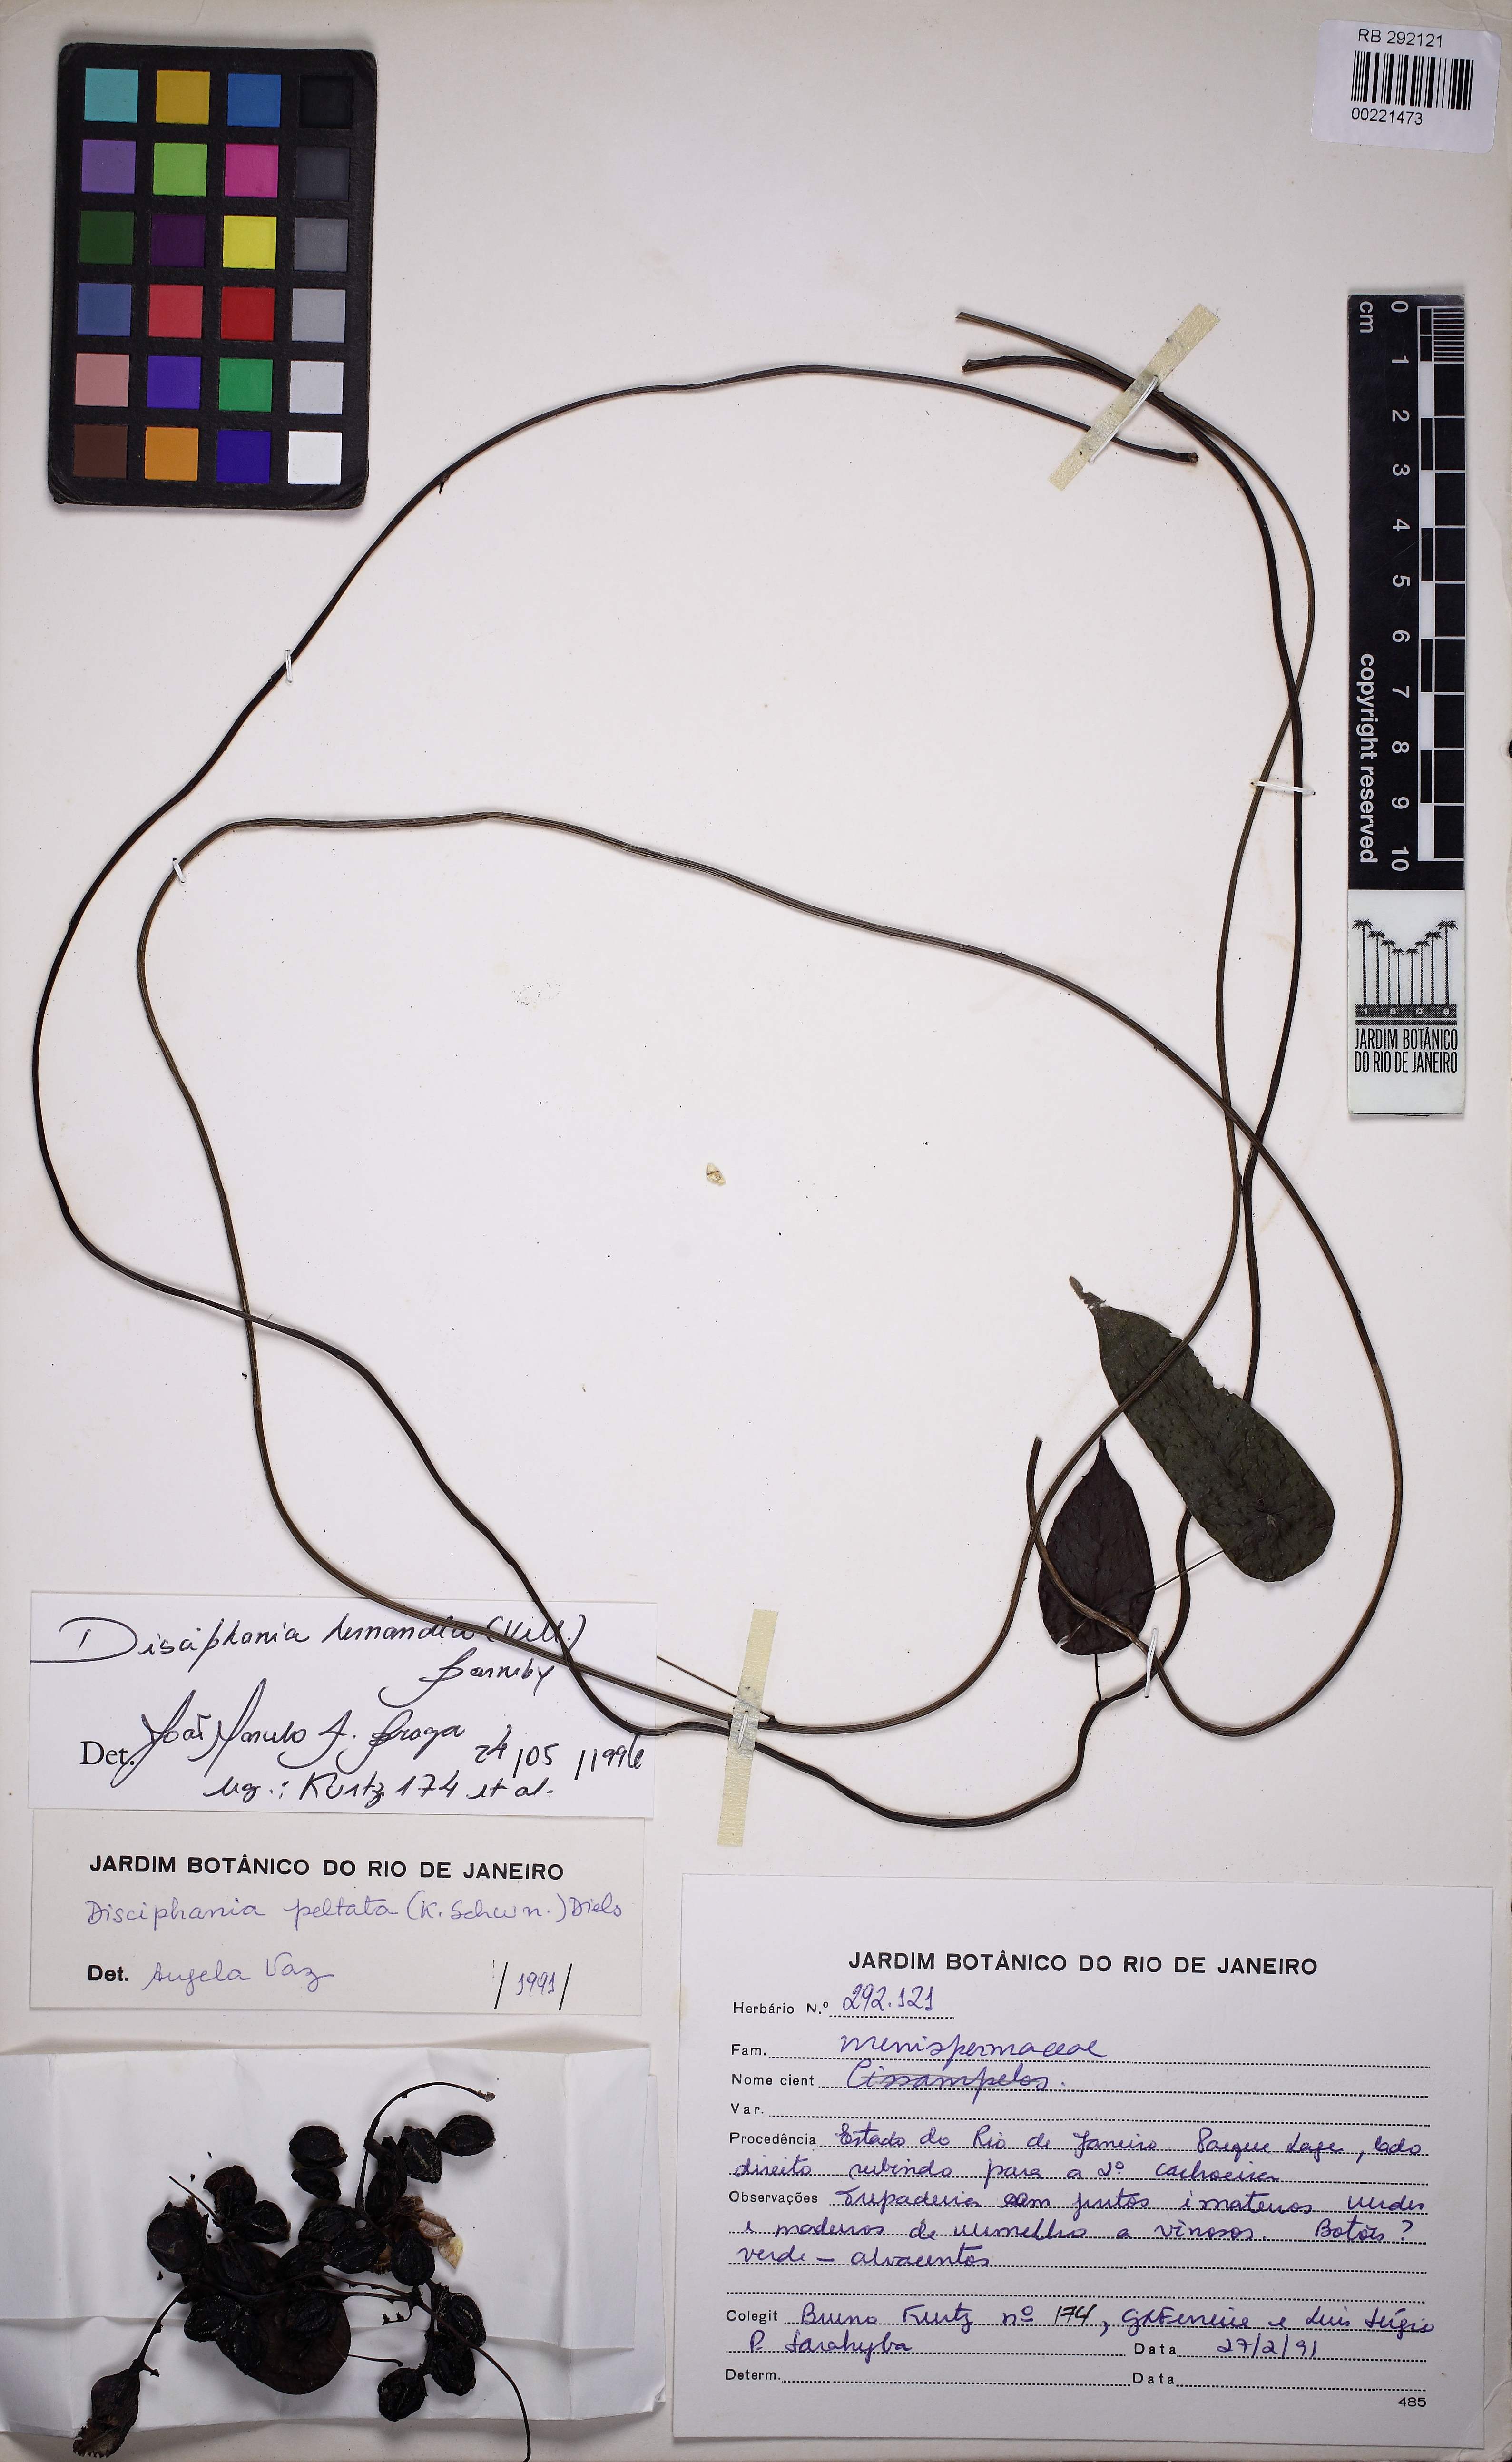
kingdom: Plantae
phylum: Tracheophyta
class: Magnoliopsida
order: Ranunculales
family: Menispermaceae
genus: Disciphania
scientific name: Disciphania hernandia
